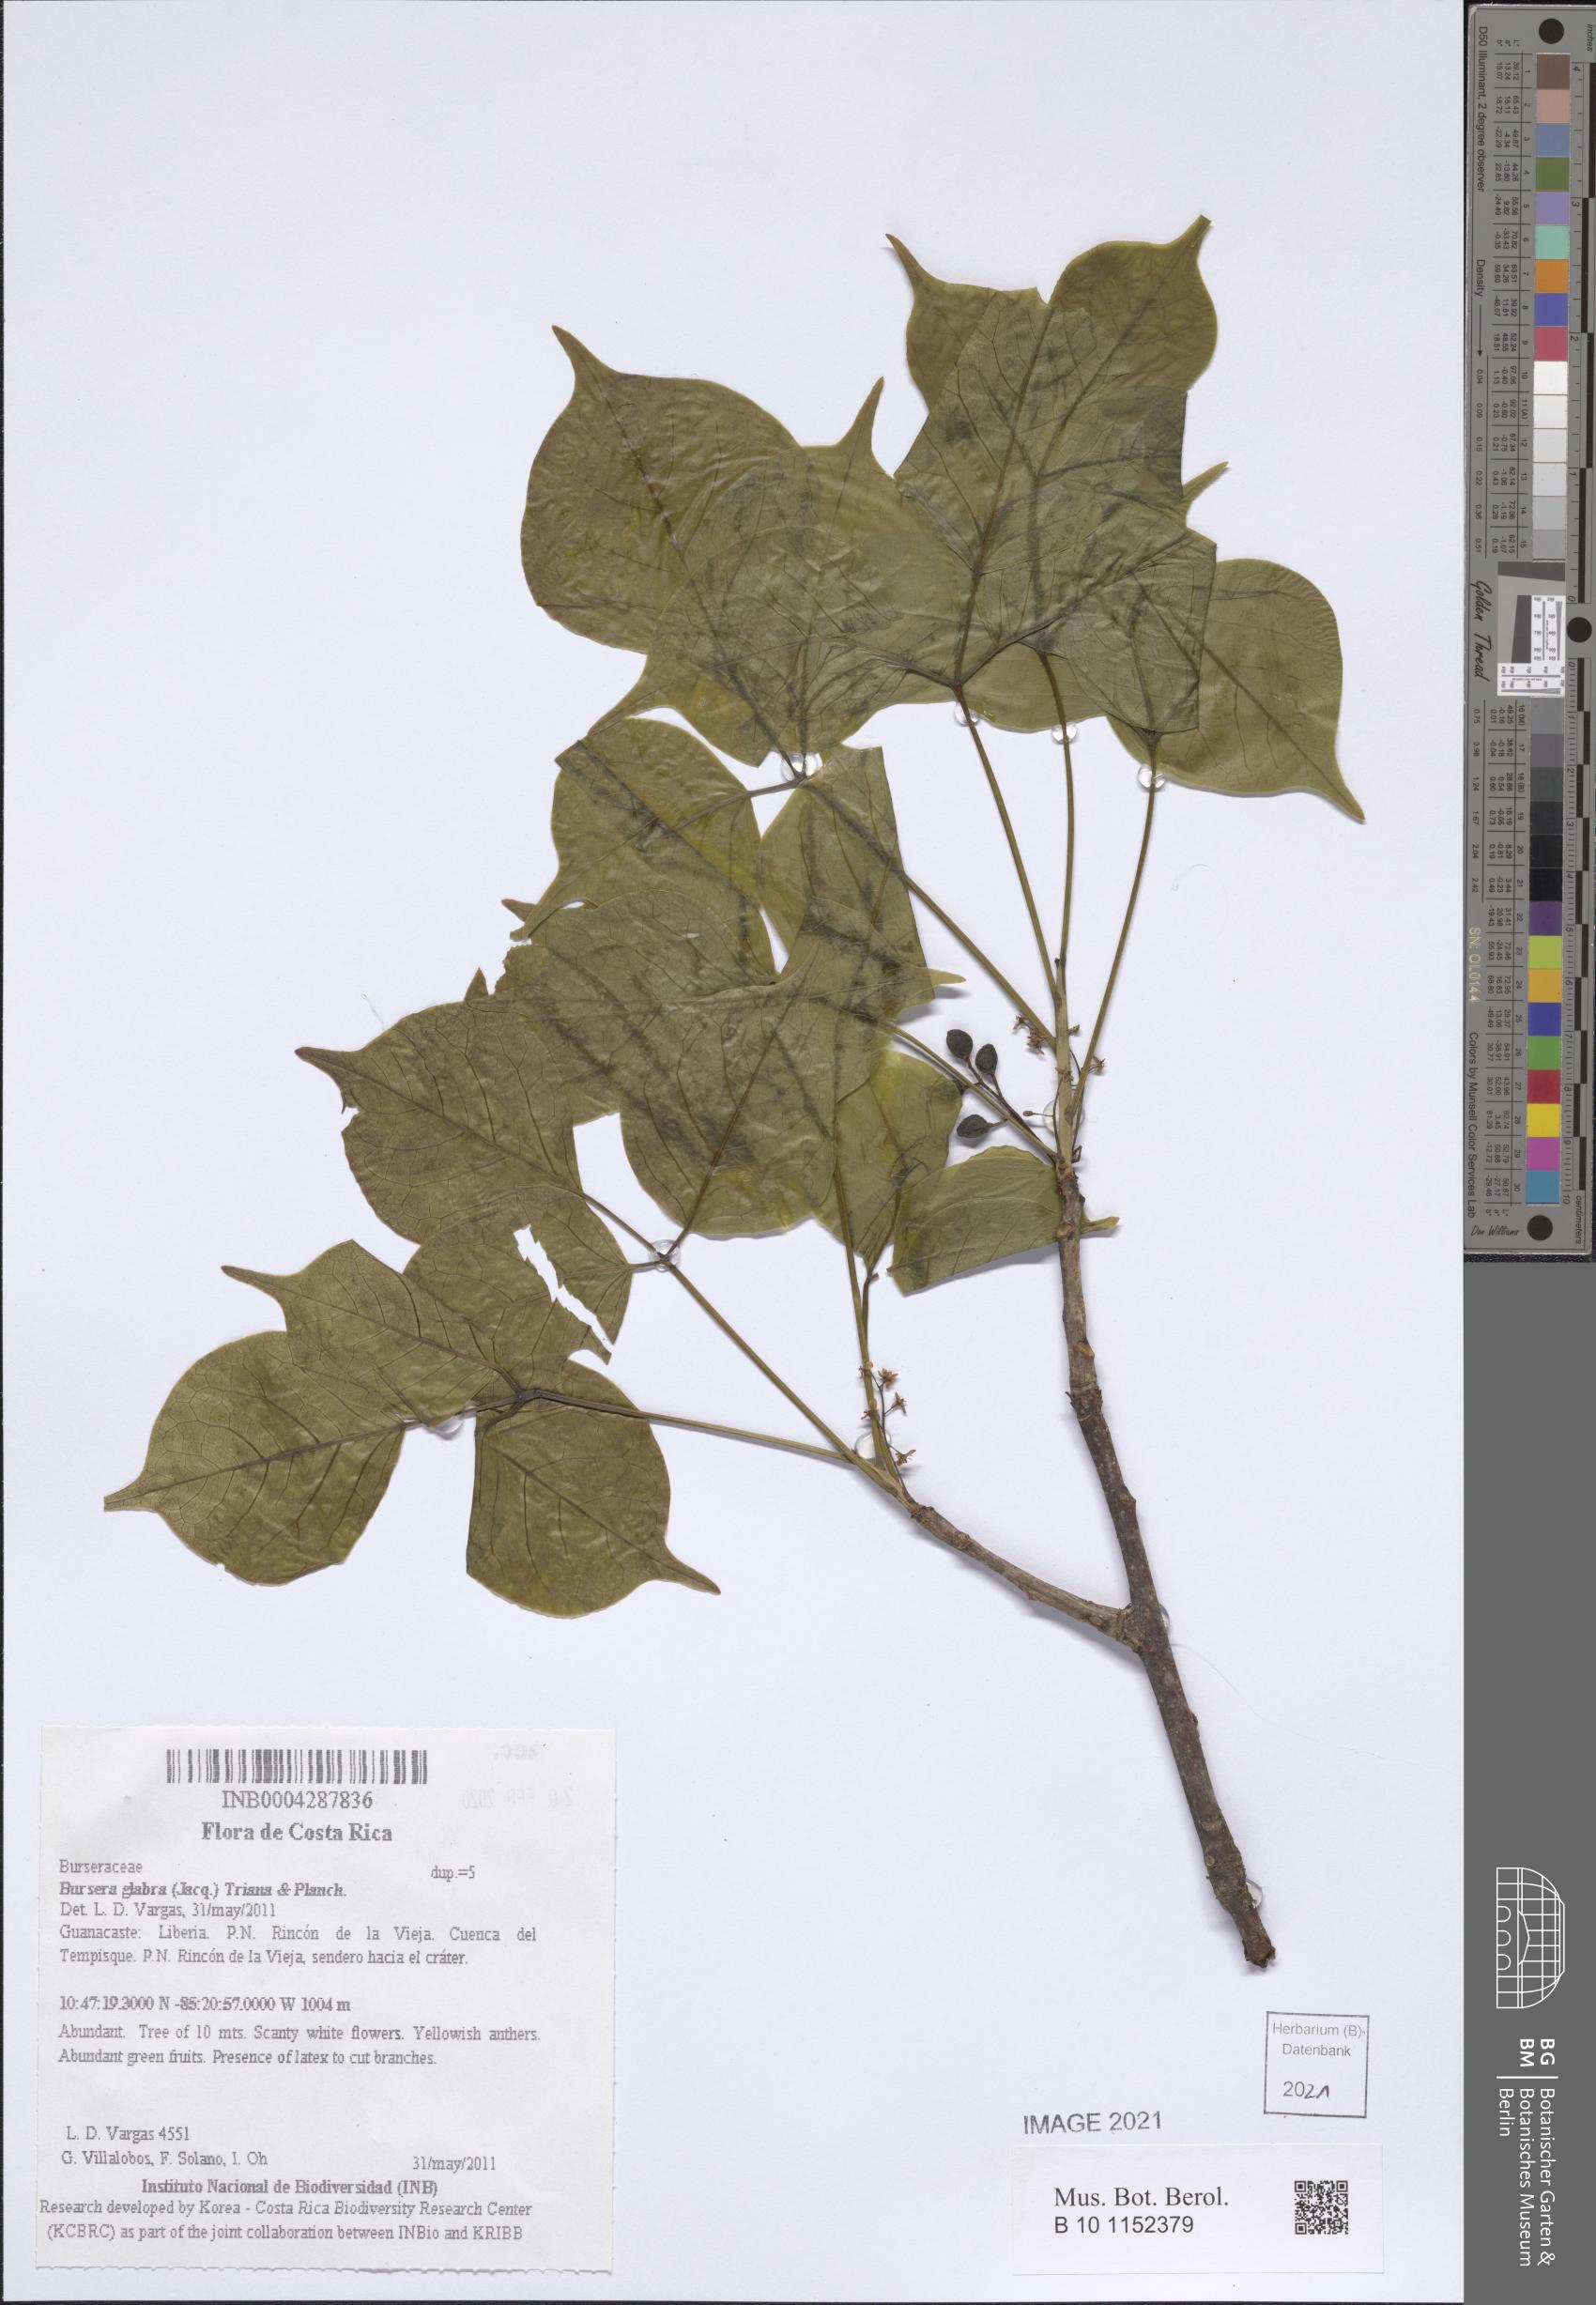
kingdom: Plantae
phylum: Tracheophyta
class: Magnoliopsida
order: Sapindales
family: Burseraceae
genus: Bursera
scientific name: Bursera ovalifolia
